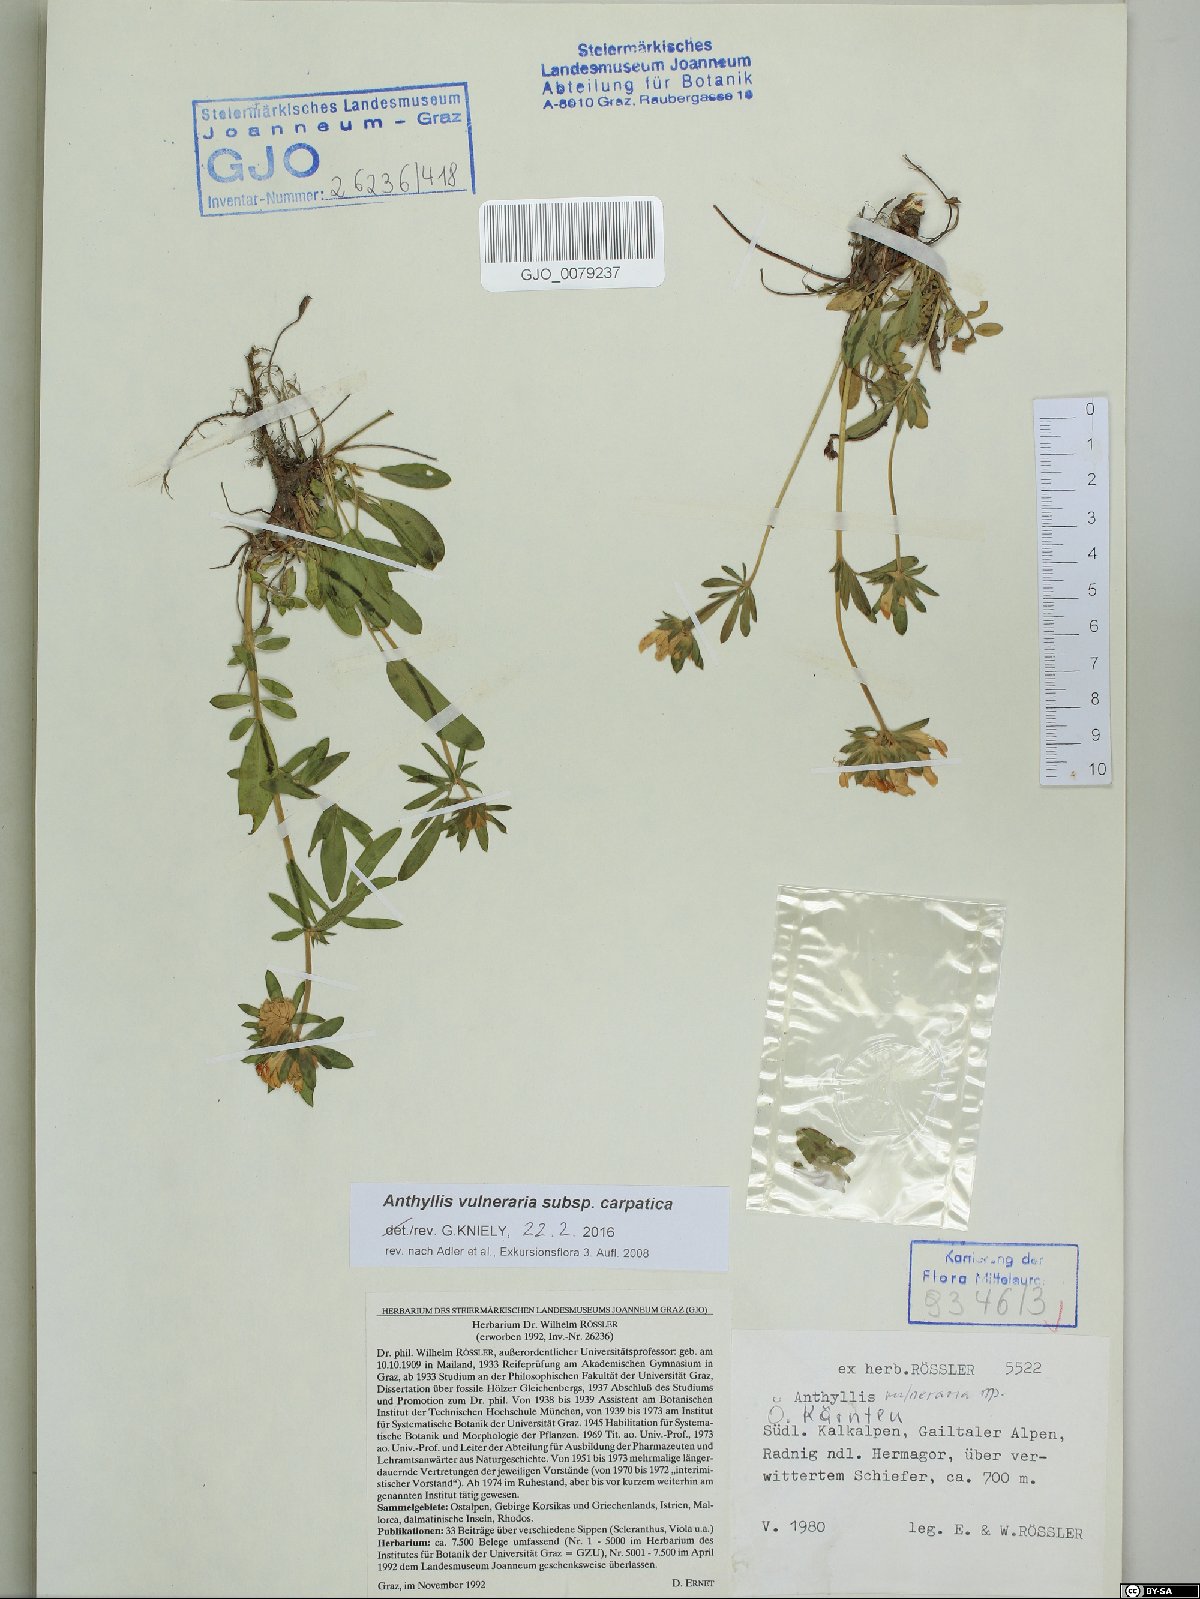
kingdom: Plantae
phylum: Tracheophyta
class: Magnoliopsida
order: Fabales
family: Fabaceae
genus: Anthyllis
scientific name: Anthyllis vulneraria
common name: Kidney vetch
